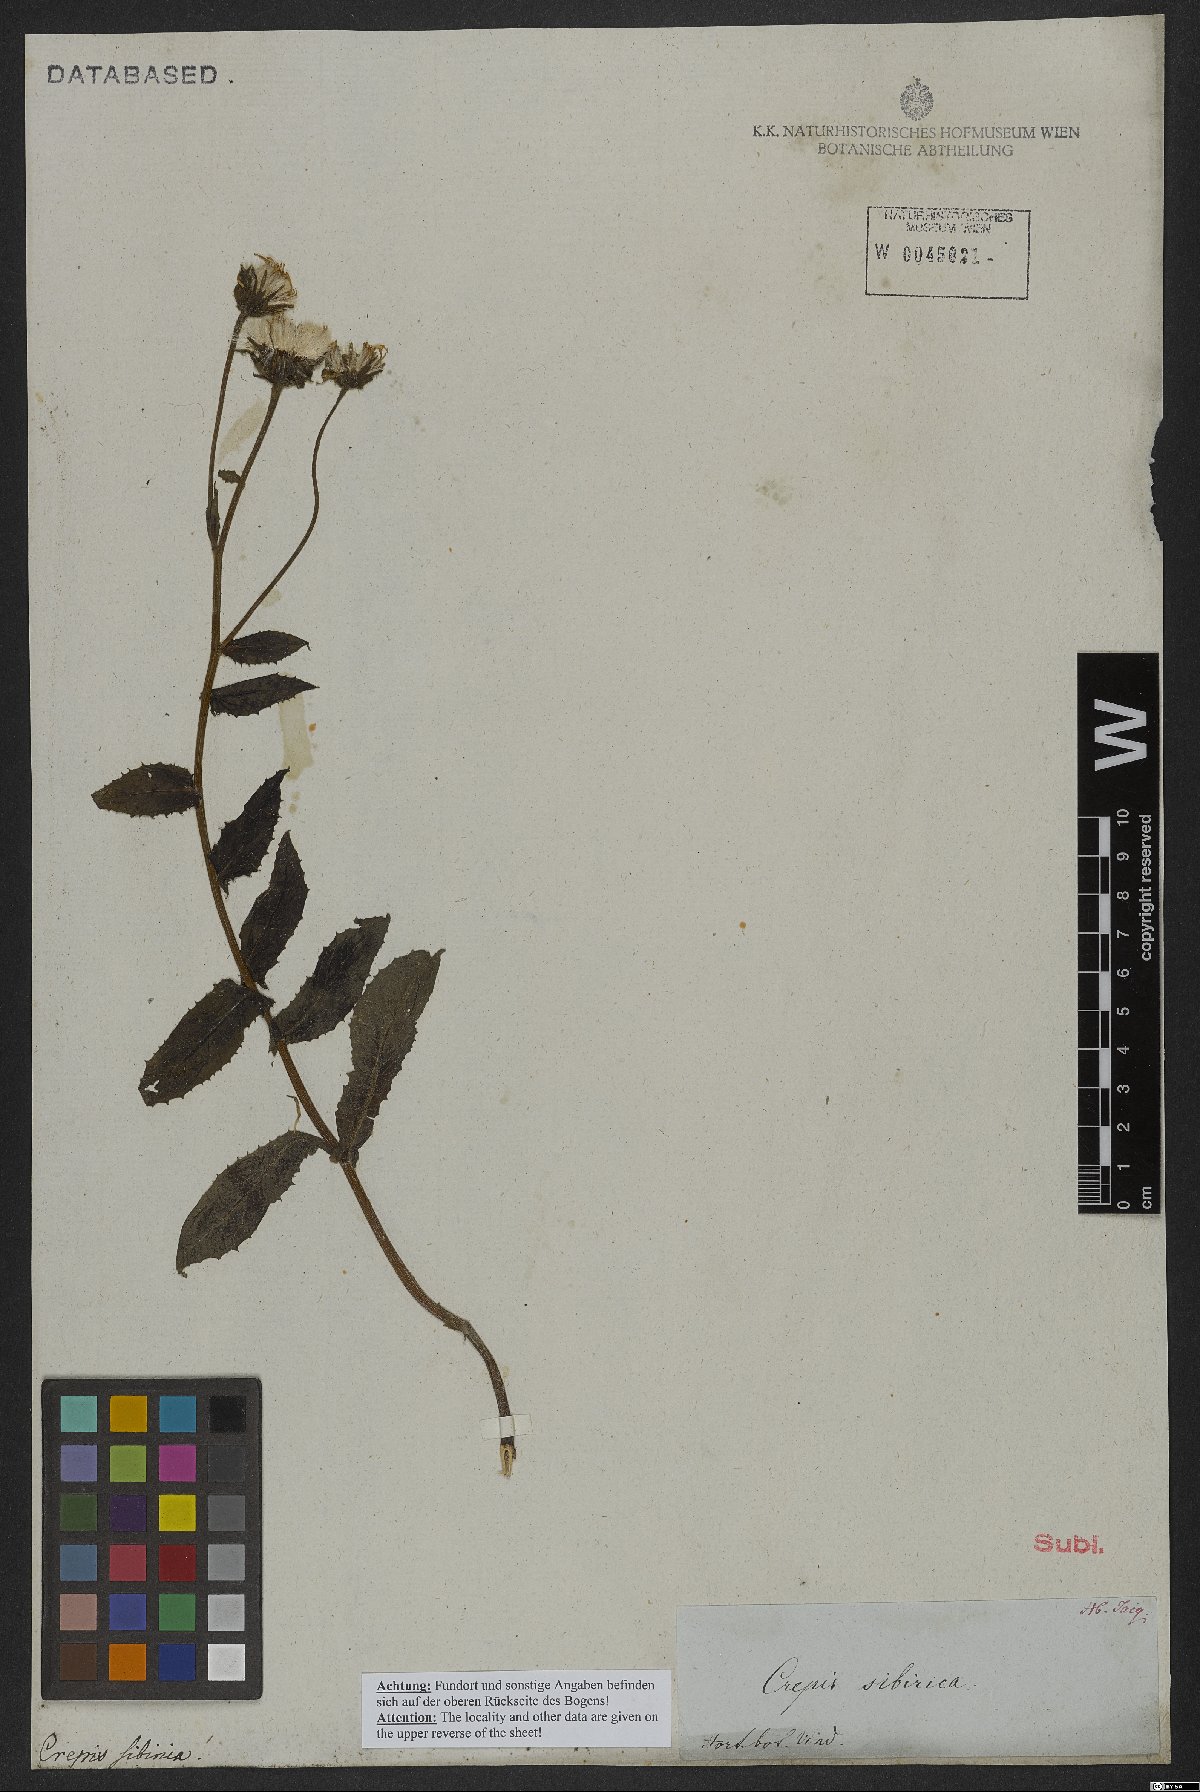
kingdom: Plantae
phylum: Tracheophyta
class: Magnoliopsida
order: Asterales
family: Asteraceae
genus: Crepis
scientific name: Crepis sibirica
